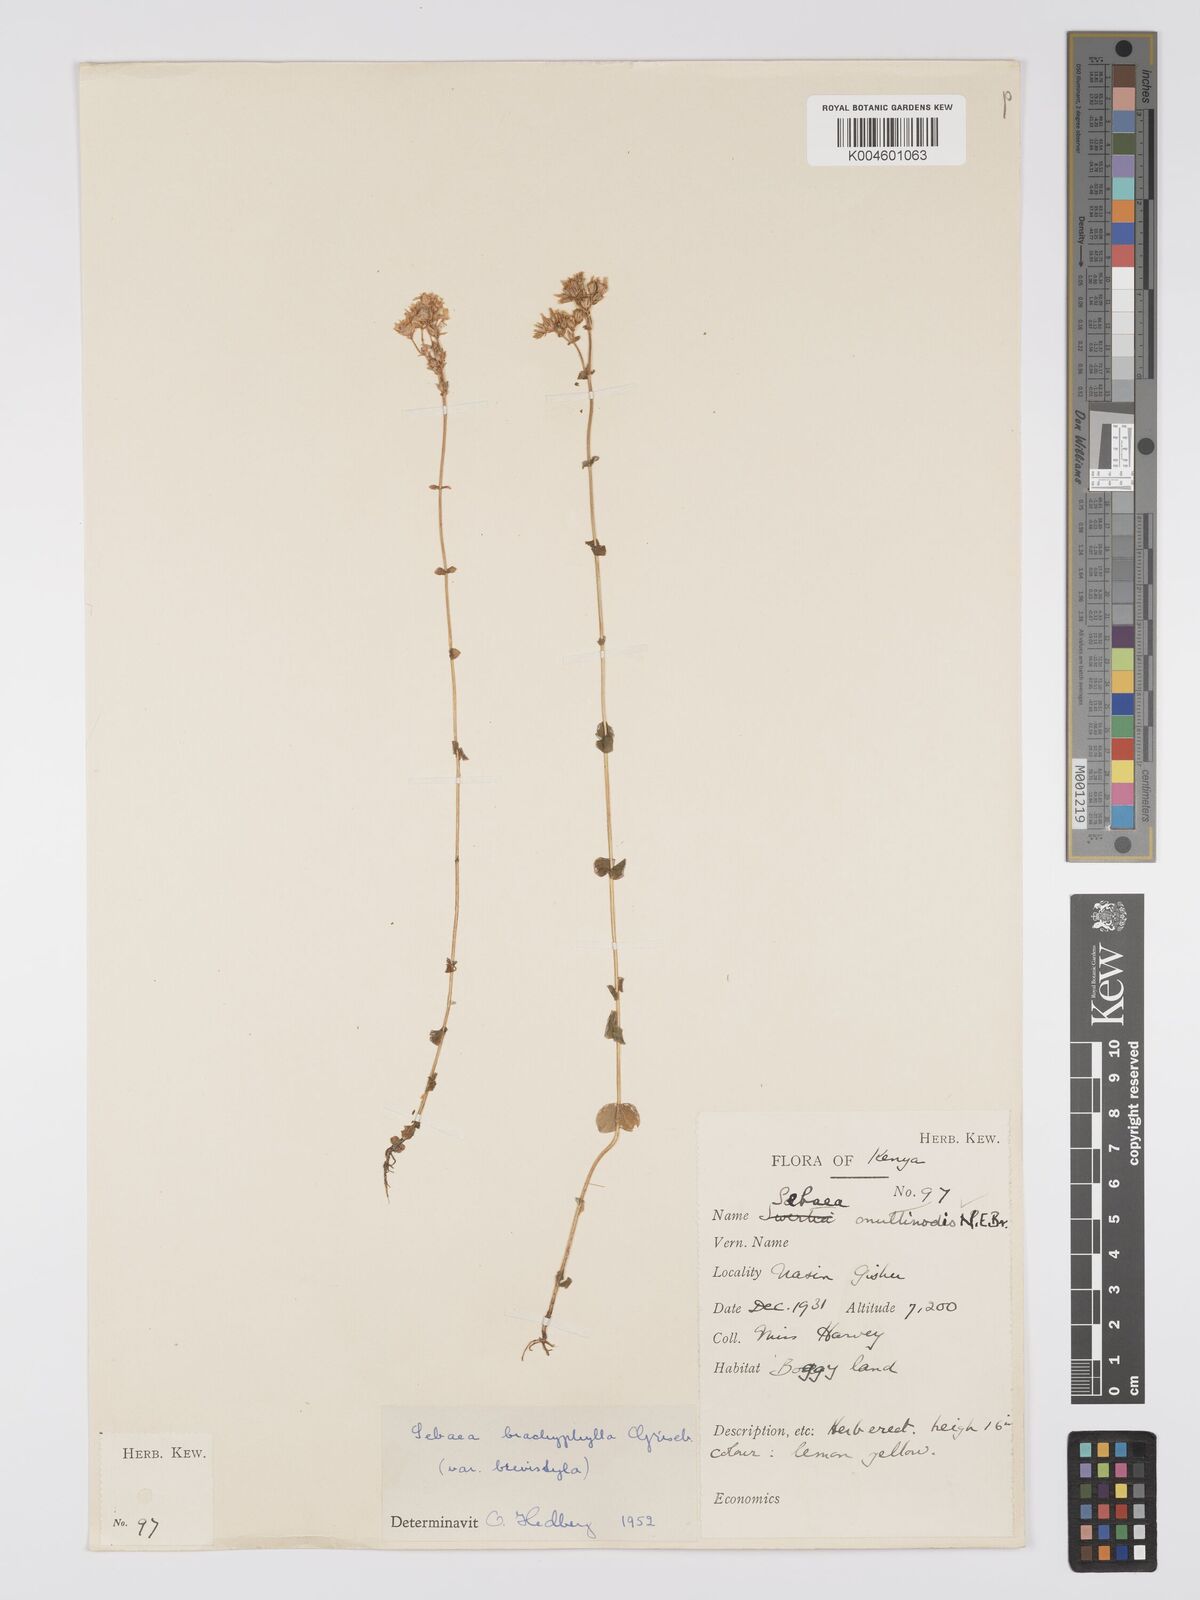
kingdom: Plantae
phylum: Tracheophyta
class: Magnoliopsida
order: Gentianales
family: Gentianaceae
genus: Sebaea
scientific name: Sebaea brachyphylla
